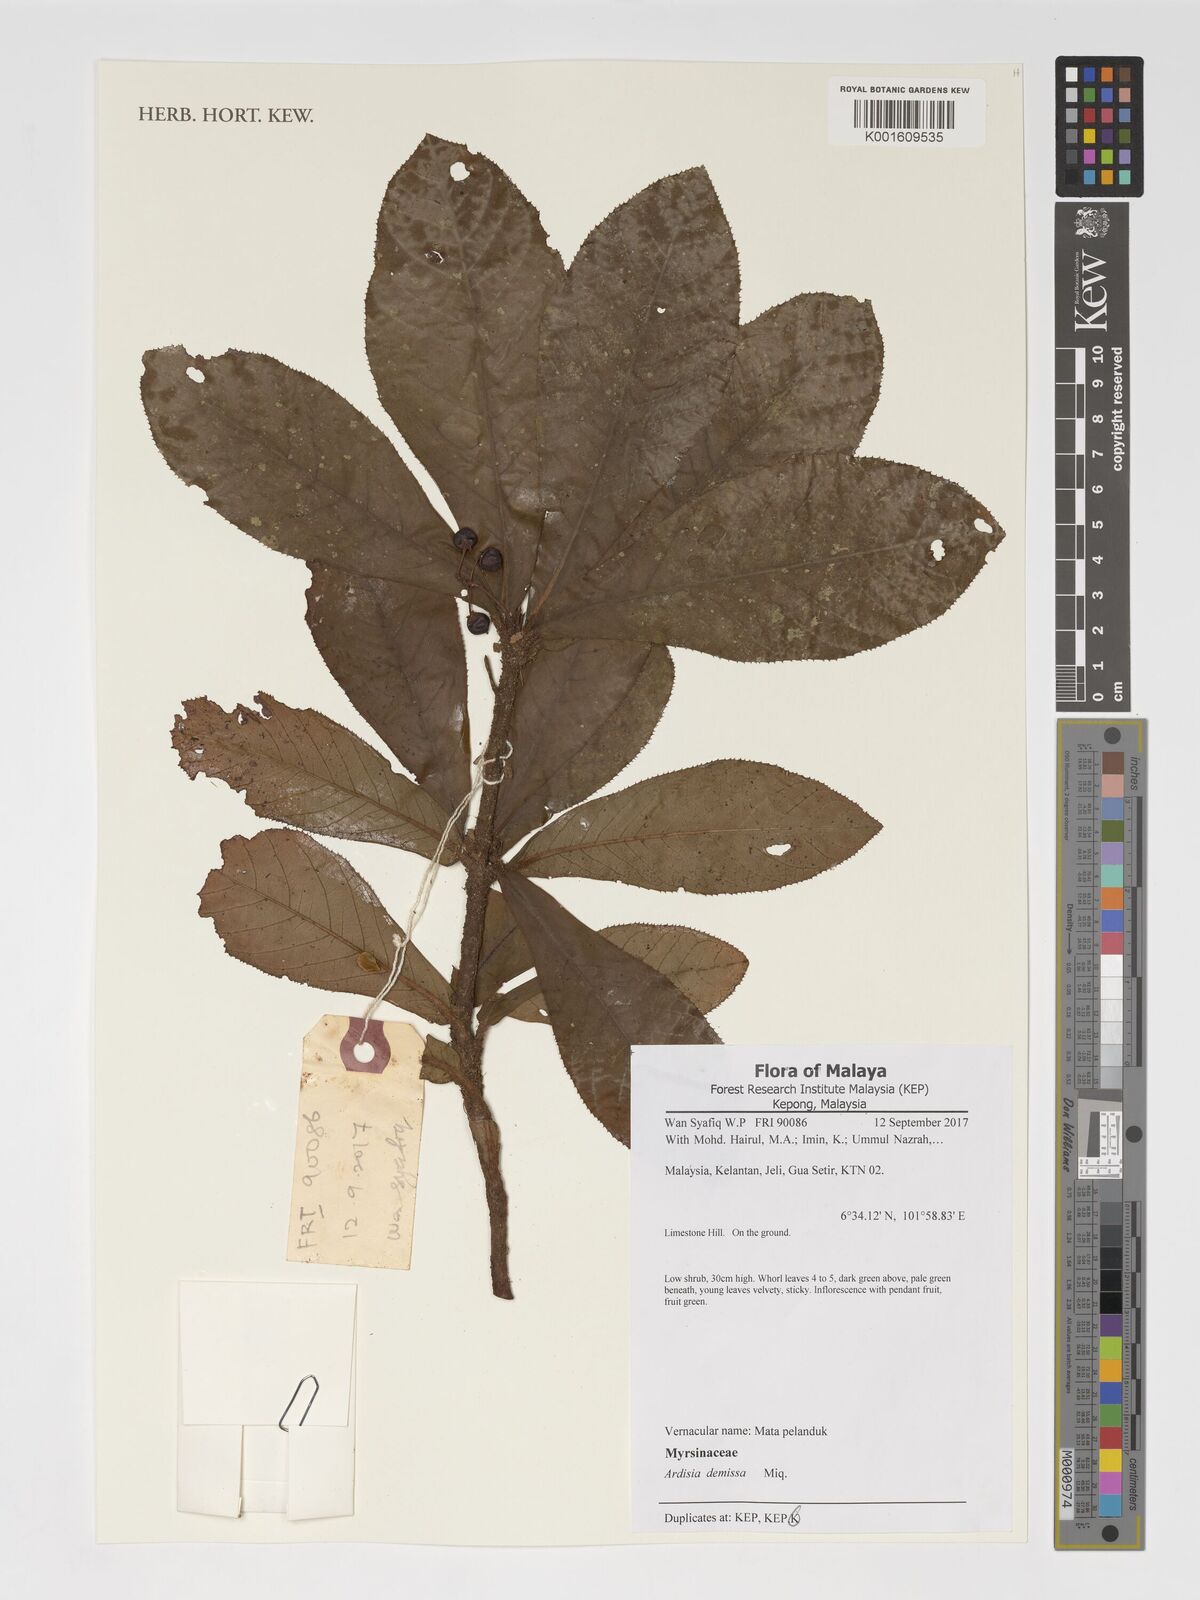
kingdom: Plantae
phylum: Tracheophyta
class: Magnoliopsida
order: Ericales
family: Primulaceae
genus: Ardisia
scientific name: Ardisia demissa
